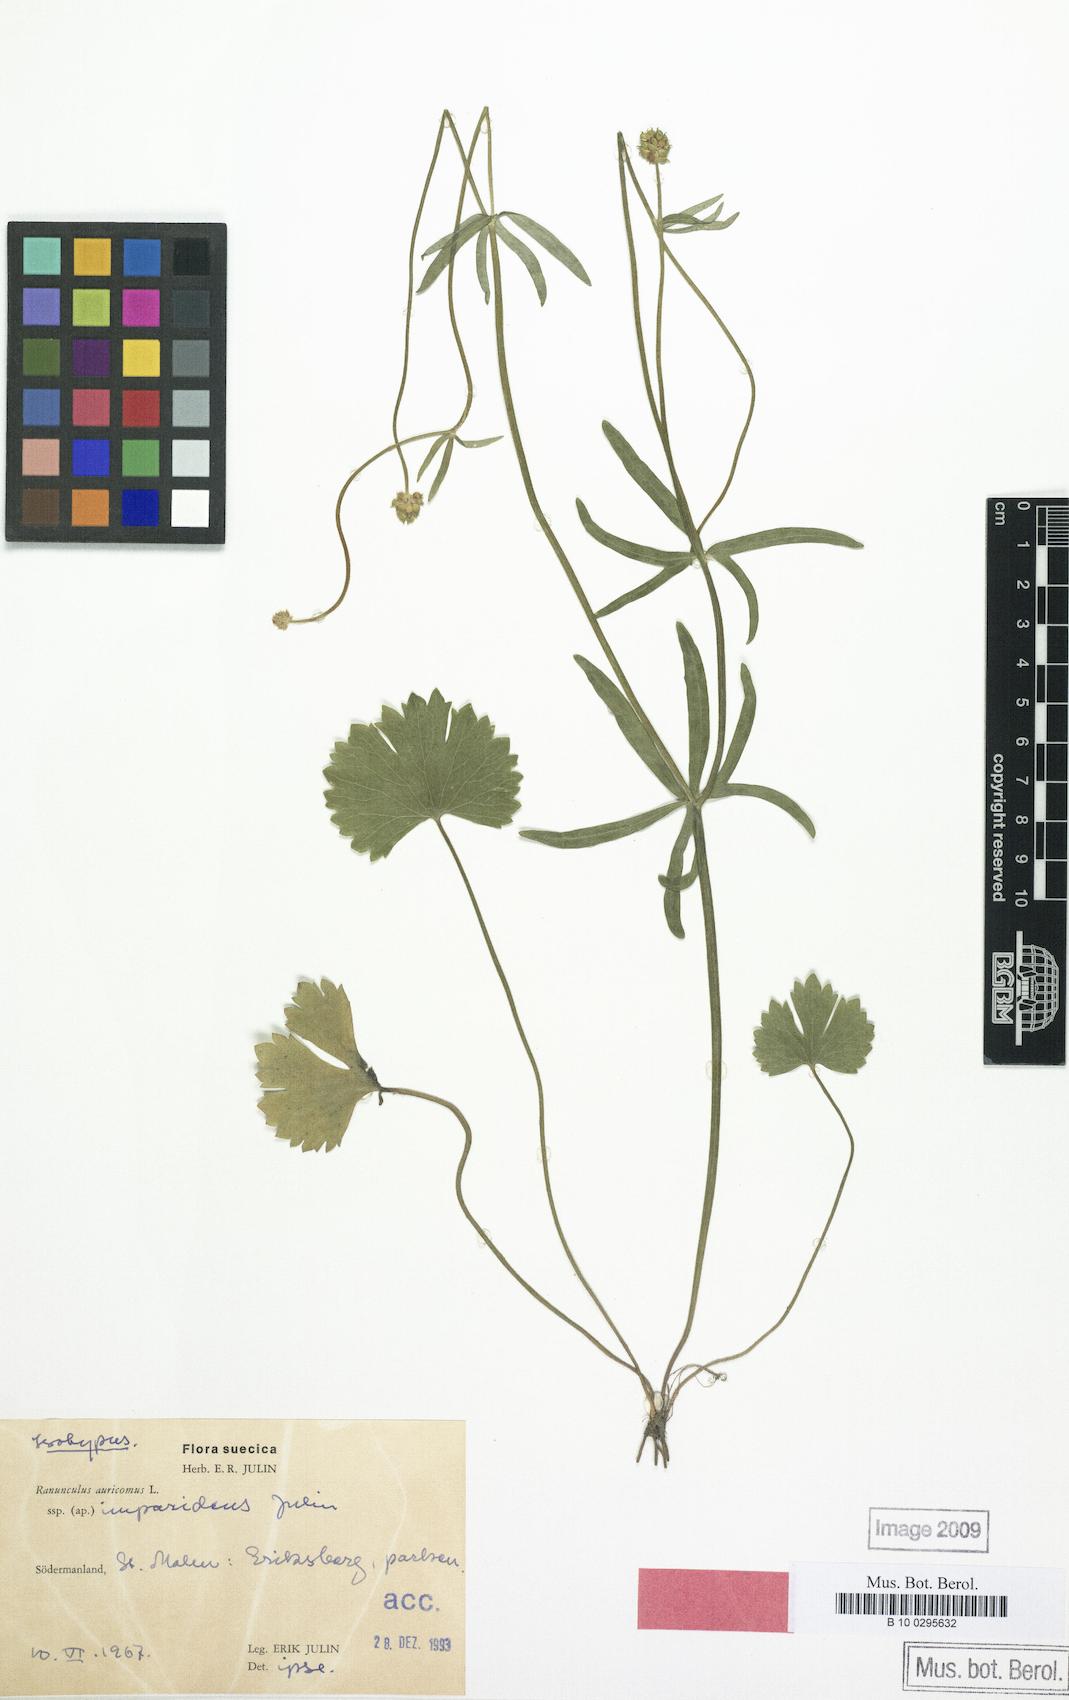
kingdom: Plantae
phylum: Tracheophyta
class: Magnoliopsida
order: Ranunculales
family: Ranunculaceae
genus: Ranunculus
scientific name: Ranunculus imparidens
